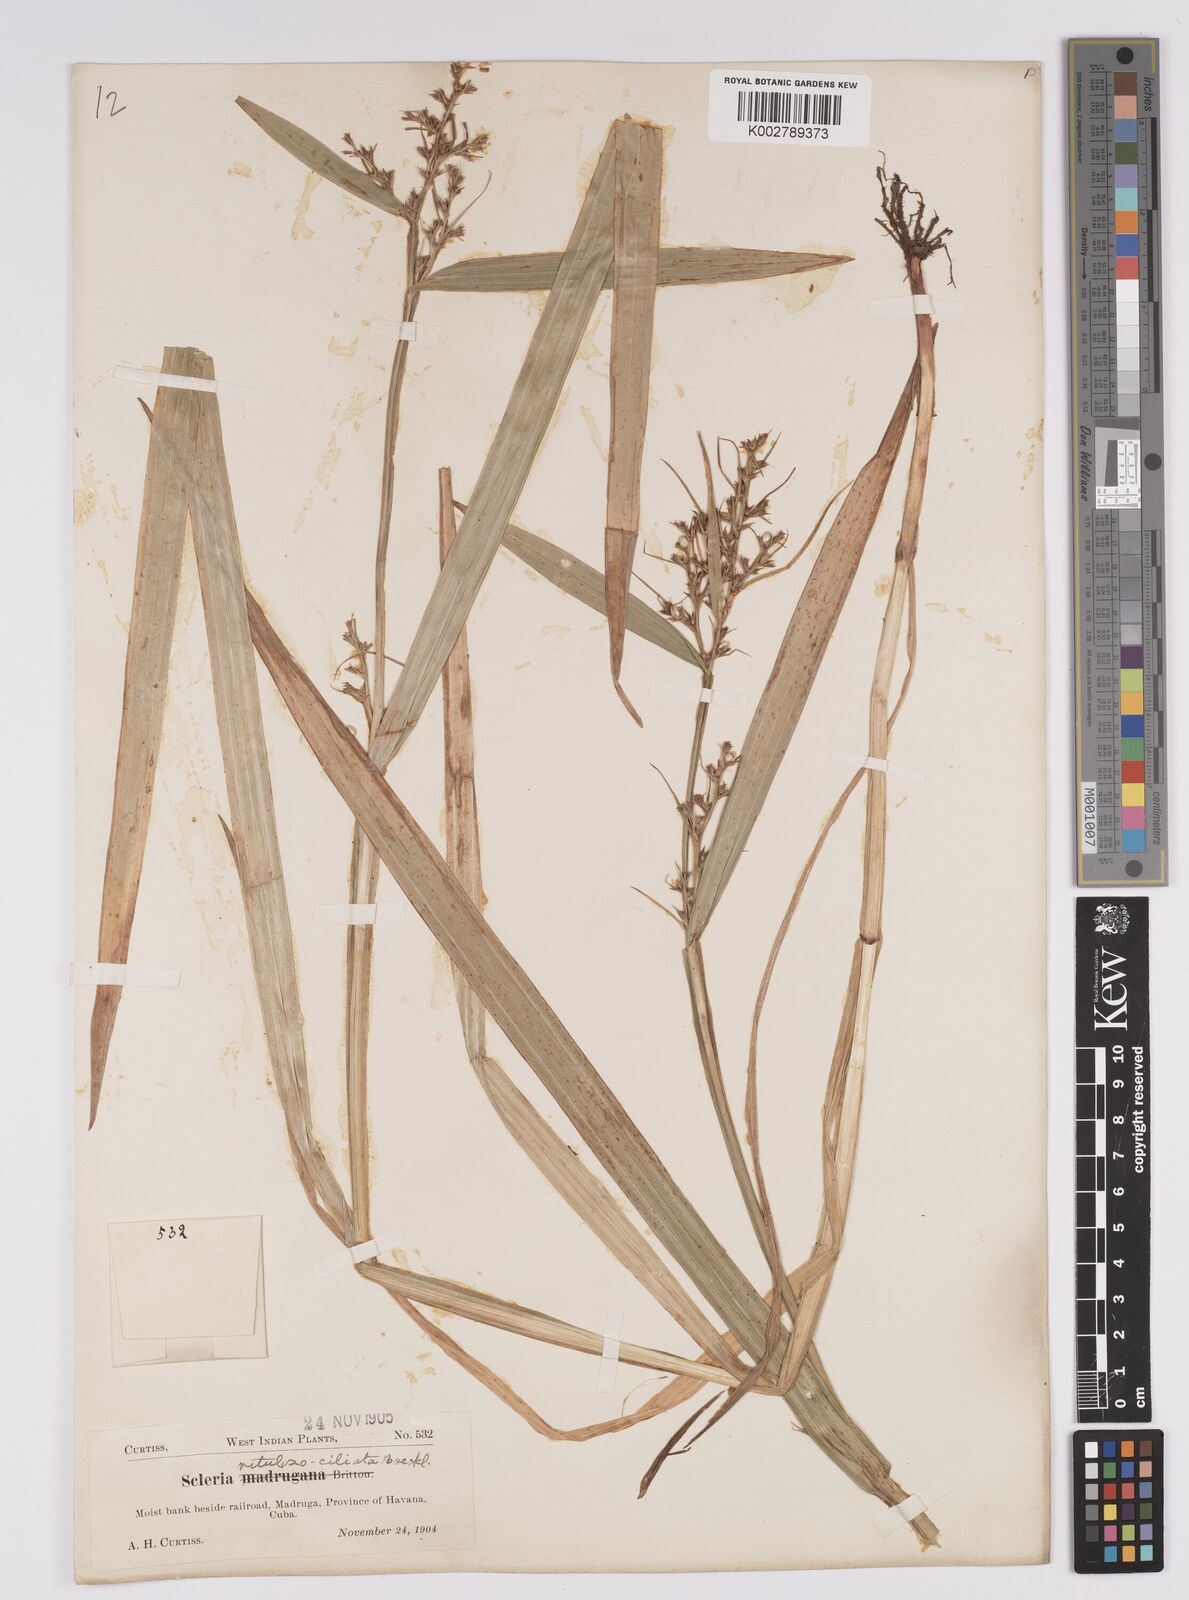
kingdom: Plantae
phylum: Tracheophyta
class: Liliopsida
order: Poales
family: Cyperaceae
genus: Scleria
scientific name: Scleria
